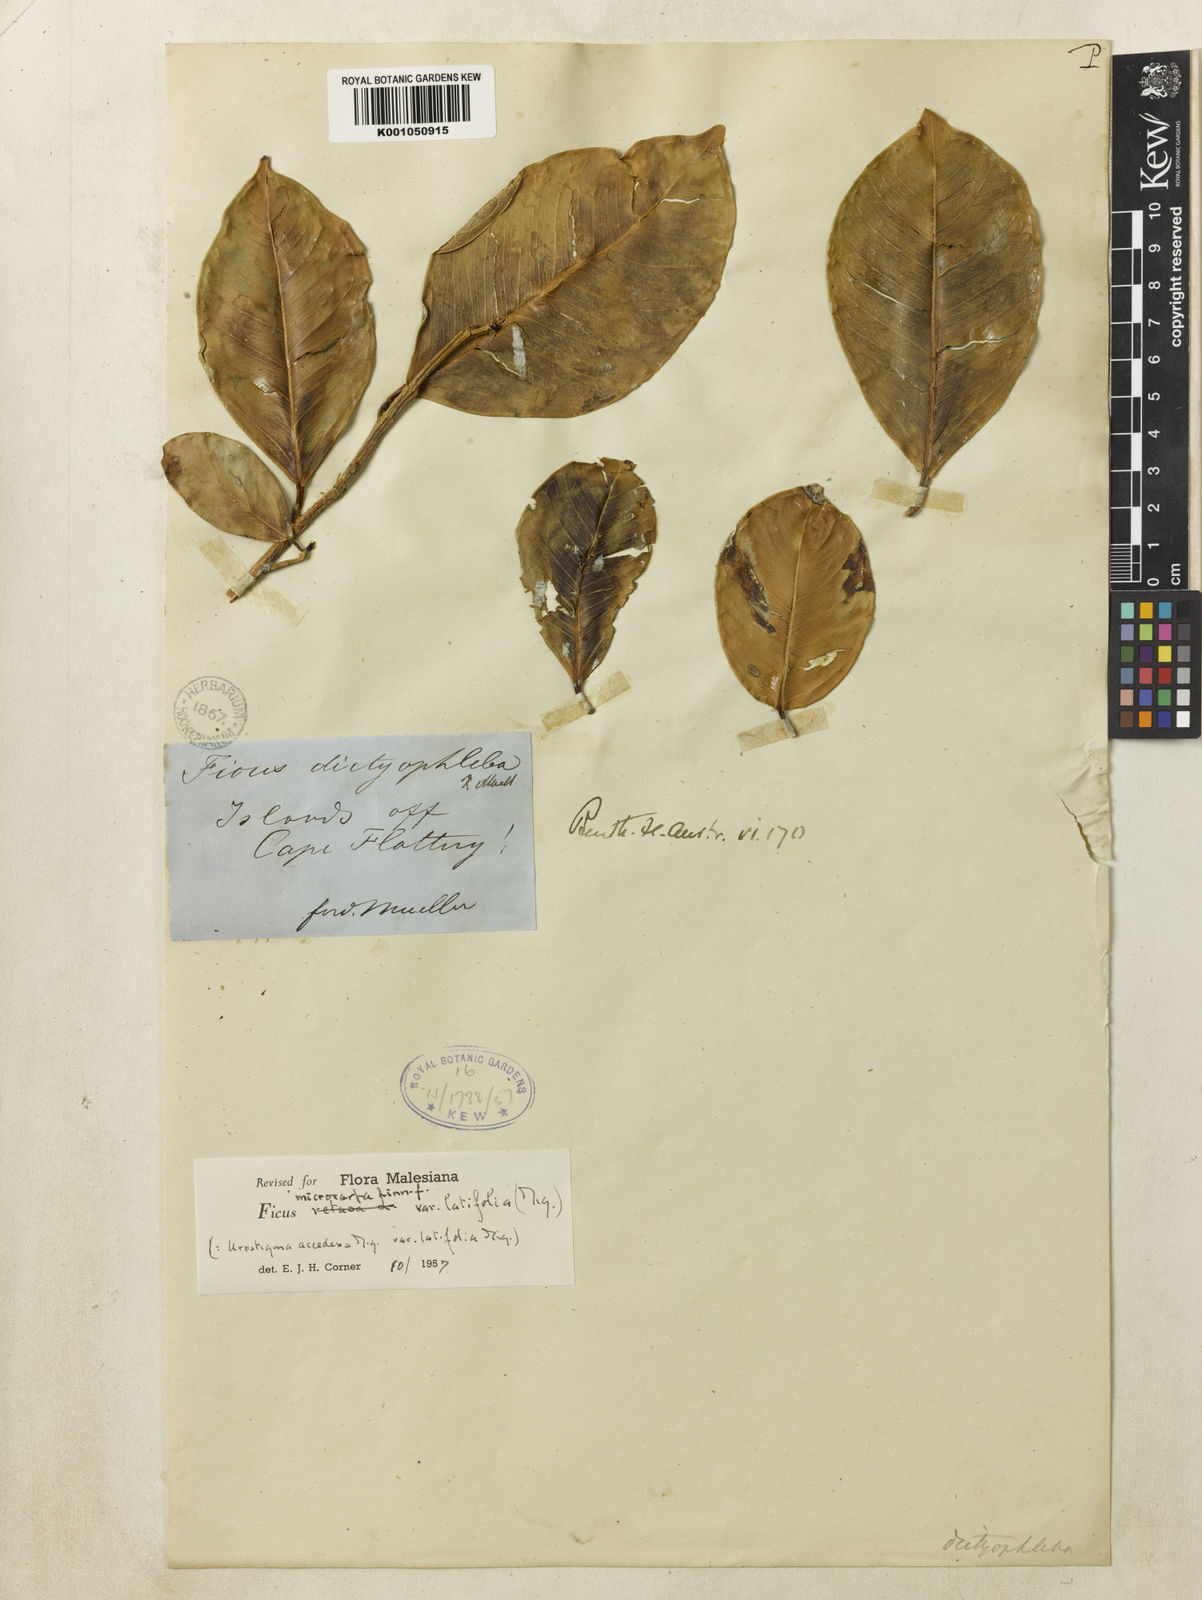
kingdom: Plantae
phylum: Tracheophyta
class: Magnoliopsida
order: Rosales
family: Moraceae
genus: Ficus
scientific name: Ficus microcarpa
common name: Chinese banyan
